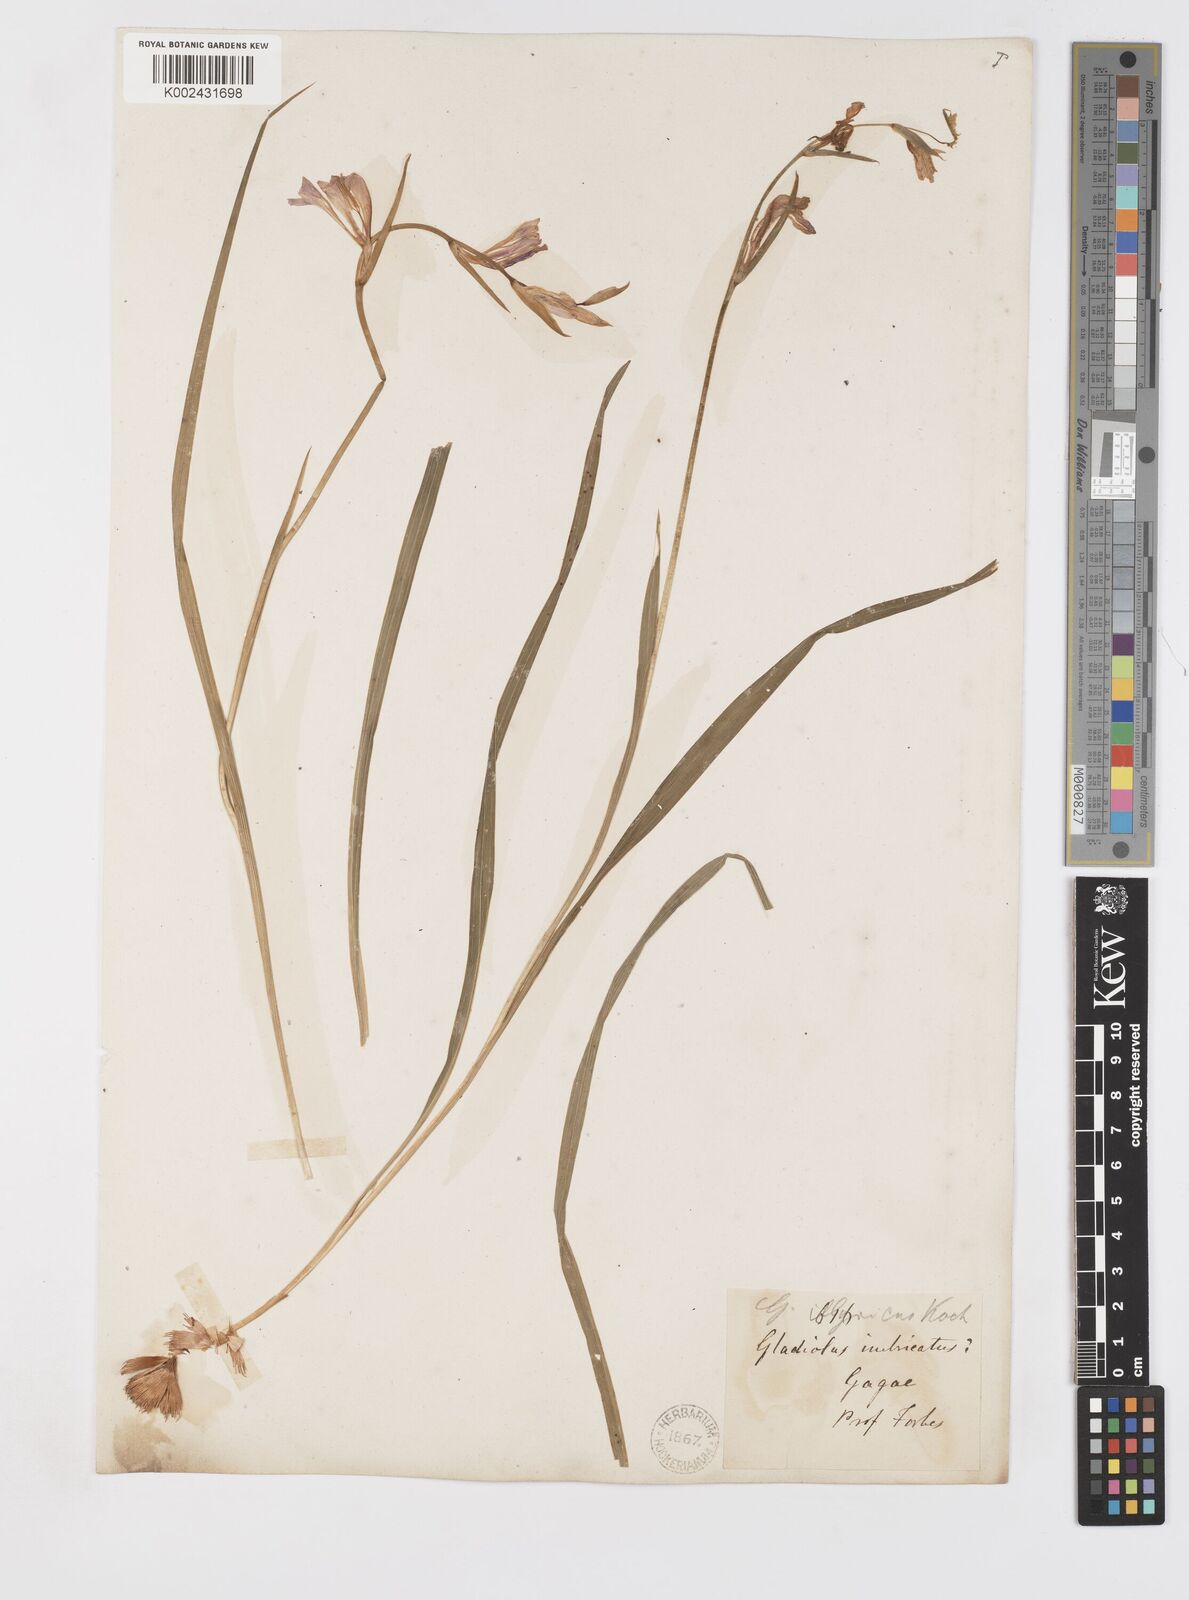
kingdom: Plantae
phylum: Tracheophyta
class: Liliopsida
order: Asparagales
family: Iridaceae
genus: Gladiolus
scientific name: Gladiolus illyricus
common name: Wild gladiolus
